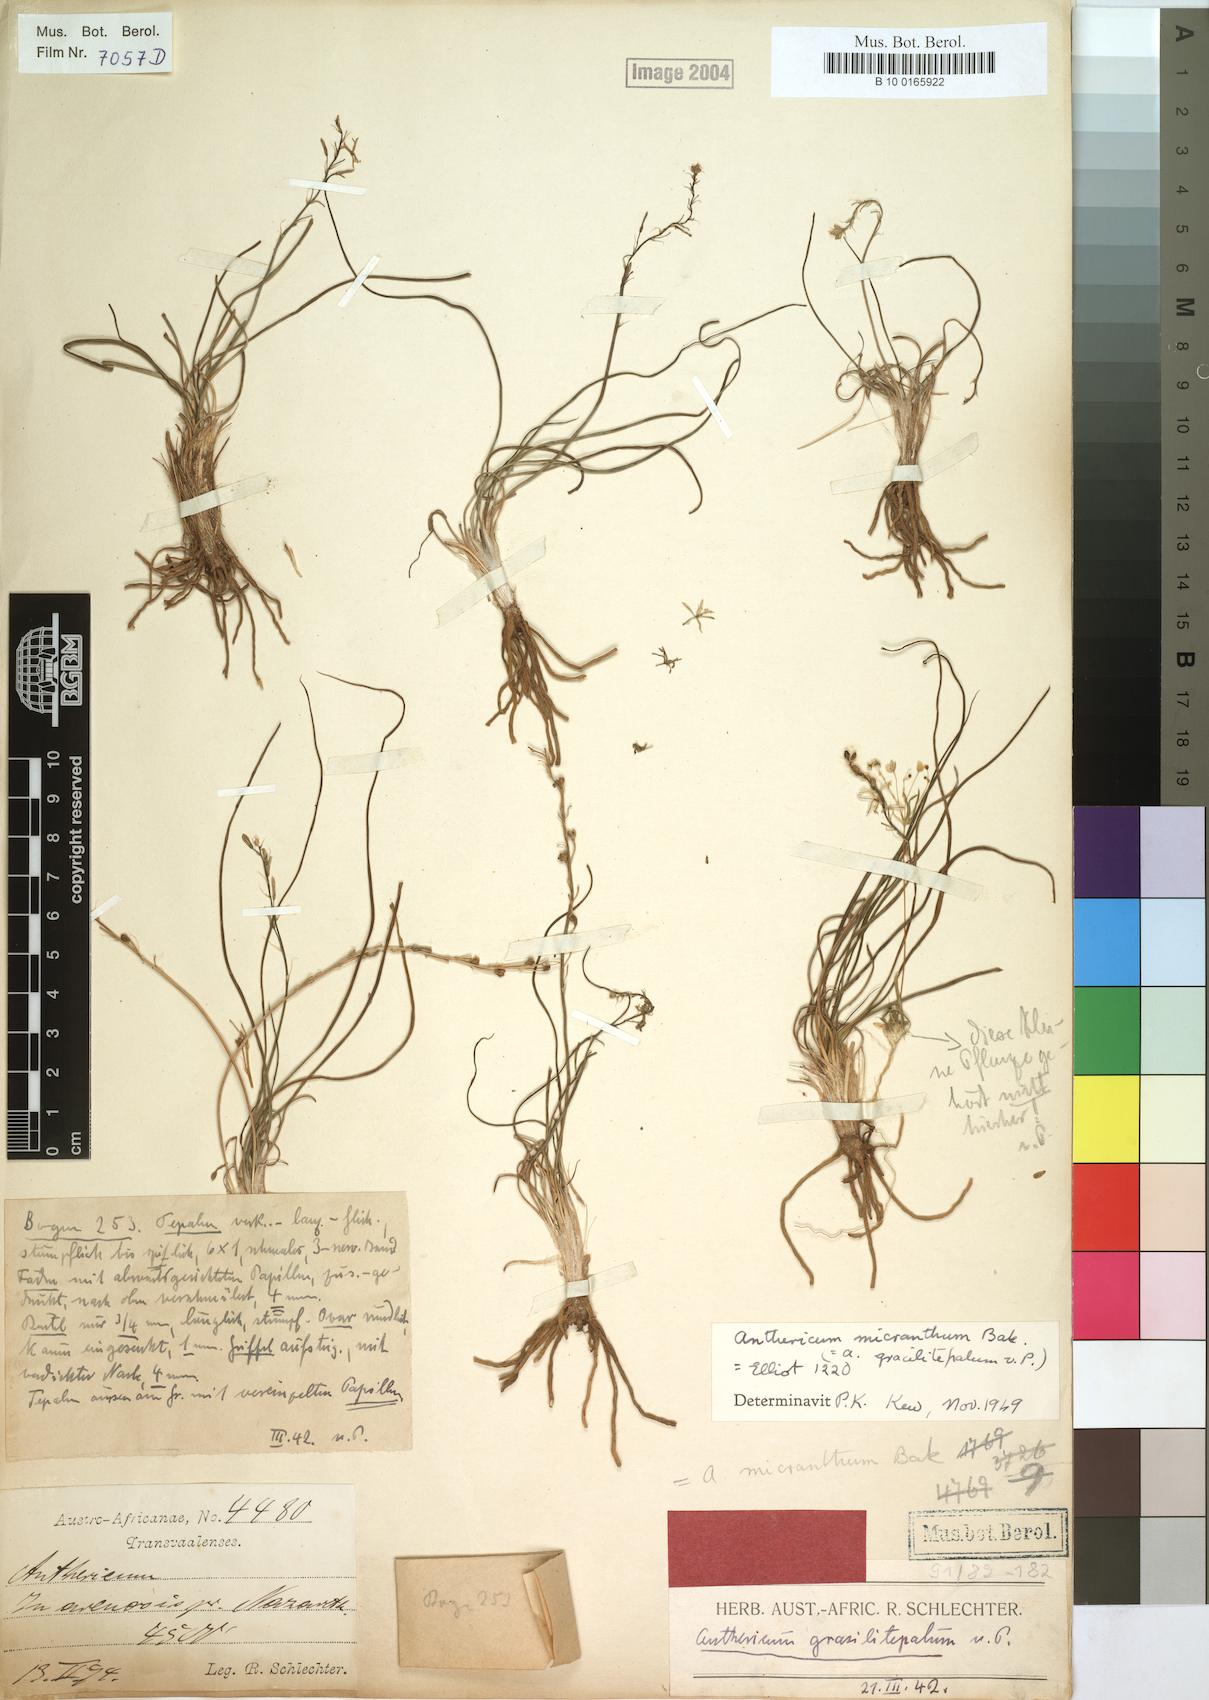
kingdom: Plantae
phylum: Tracheophyta
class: Liliopsida
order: Asparagales
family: Asphodelaceae
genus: Trachyandra
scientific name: Trachyandra saltii
